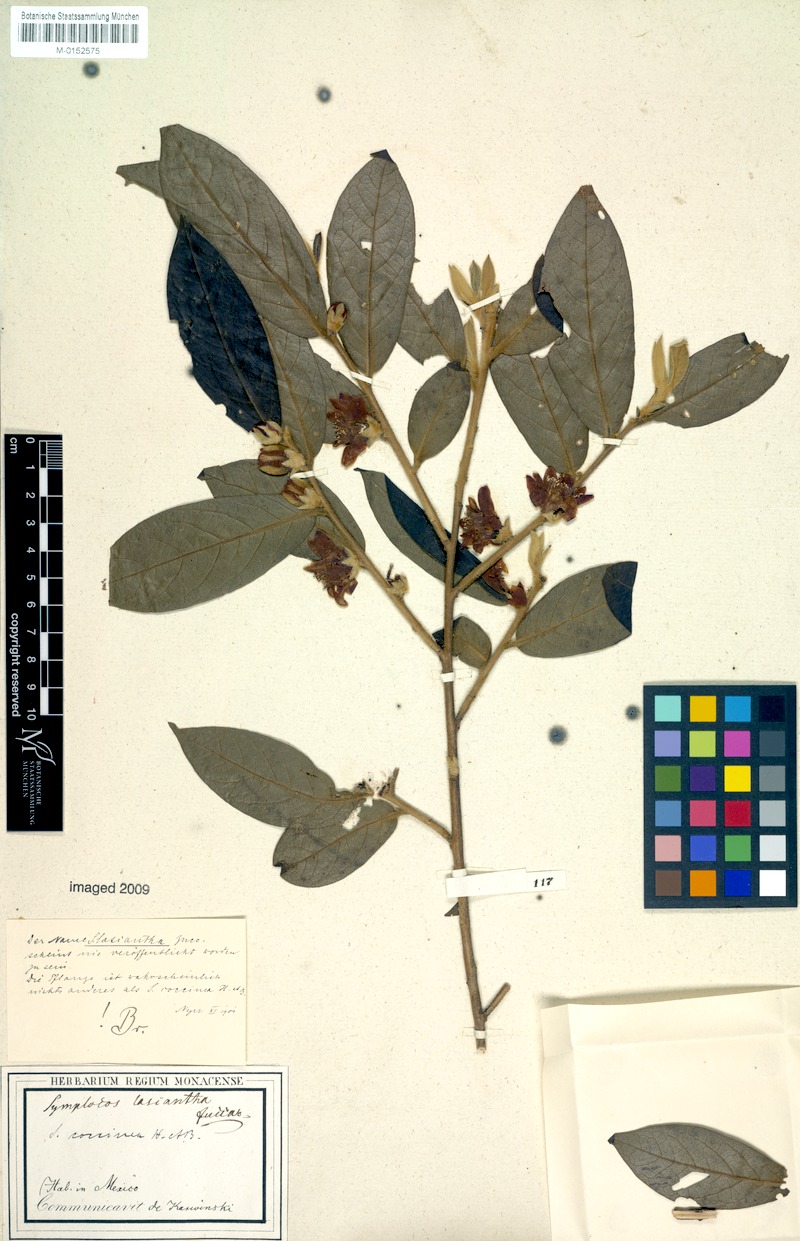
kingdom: Plantae
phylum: Tracheophyta
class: Magnoliopsida
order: Ericales
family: Symplocaceae
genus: Symplocos
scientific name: Symplocos coccinea
